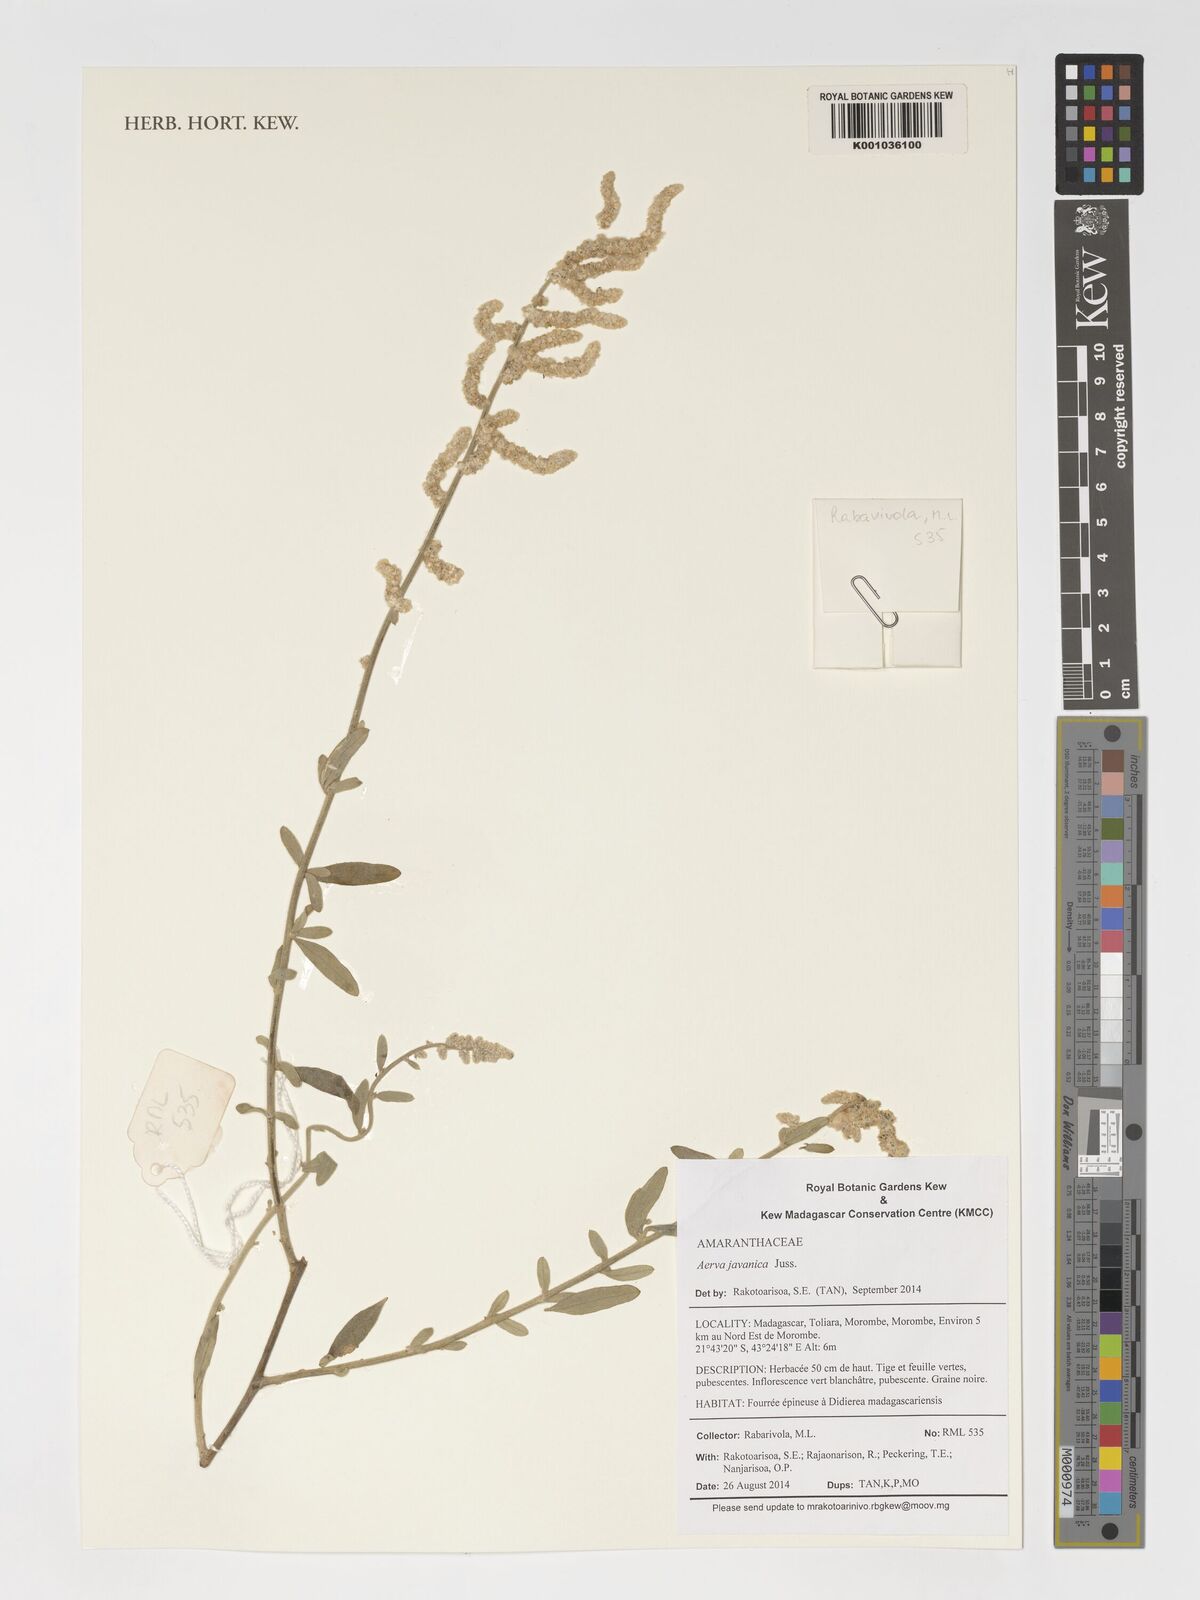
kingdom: Plantae
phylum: Tracheophyta
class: Magnoliopsida
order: Caryophyllales
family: Amaranthaceae
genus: Aerva
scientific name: Aerva javanica
